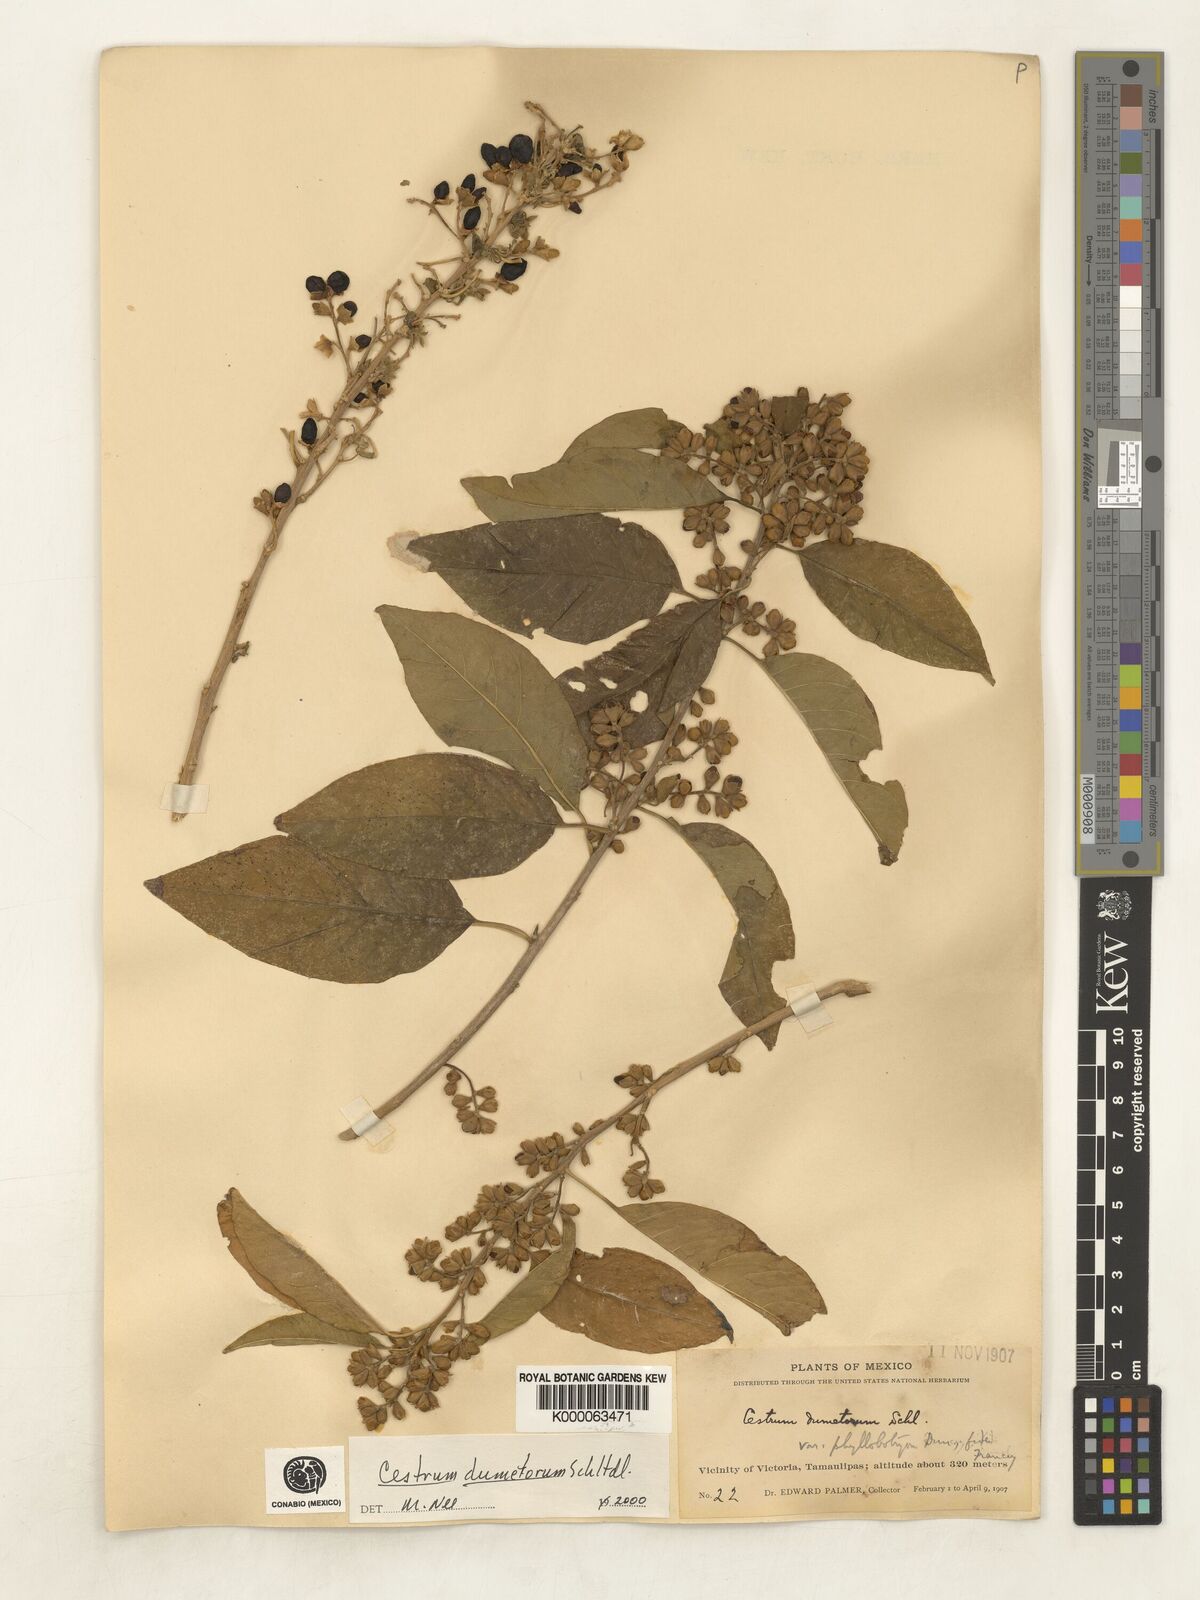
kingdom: Plantae
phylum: Tracheophyta
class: Magnoliopsida
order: Solanales
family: Solanaceae
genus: Cestrum
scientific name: Cestrum dumetorum
